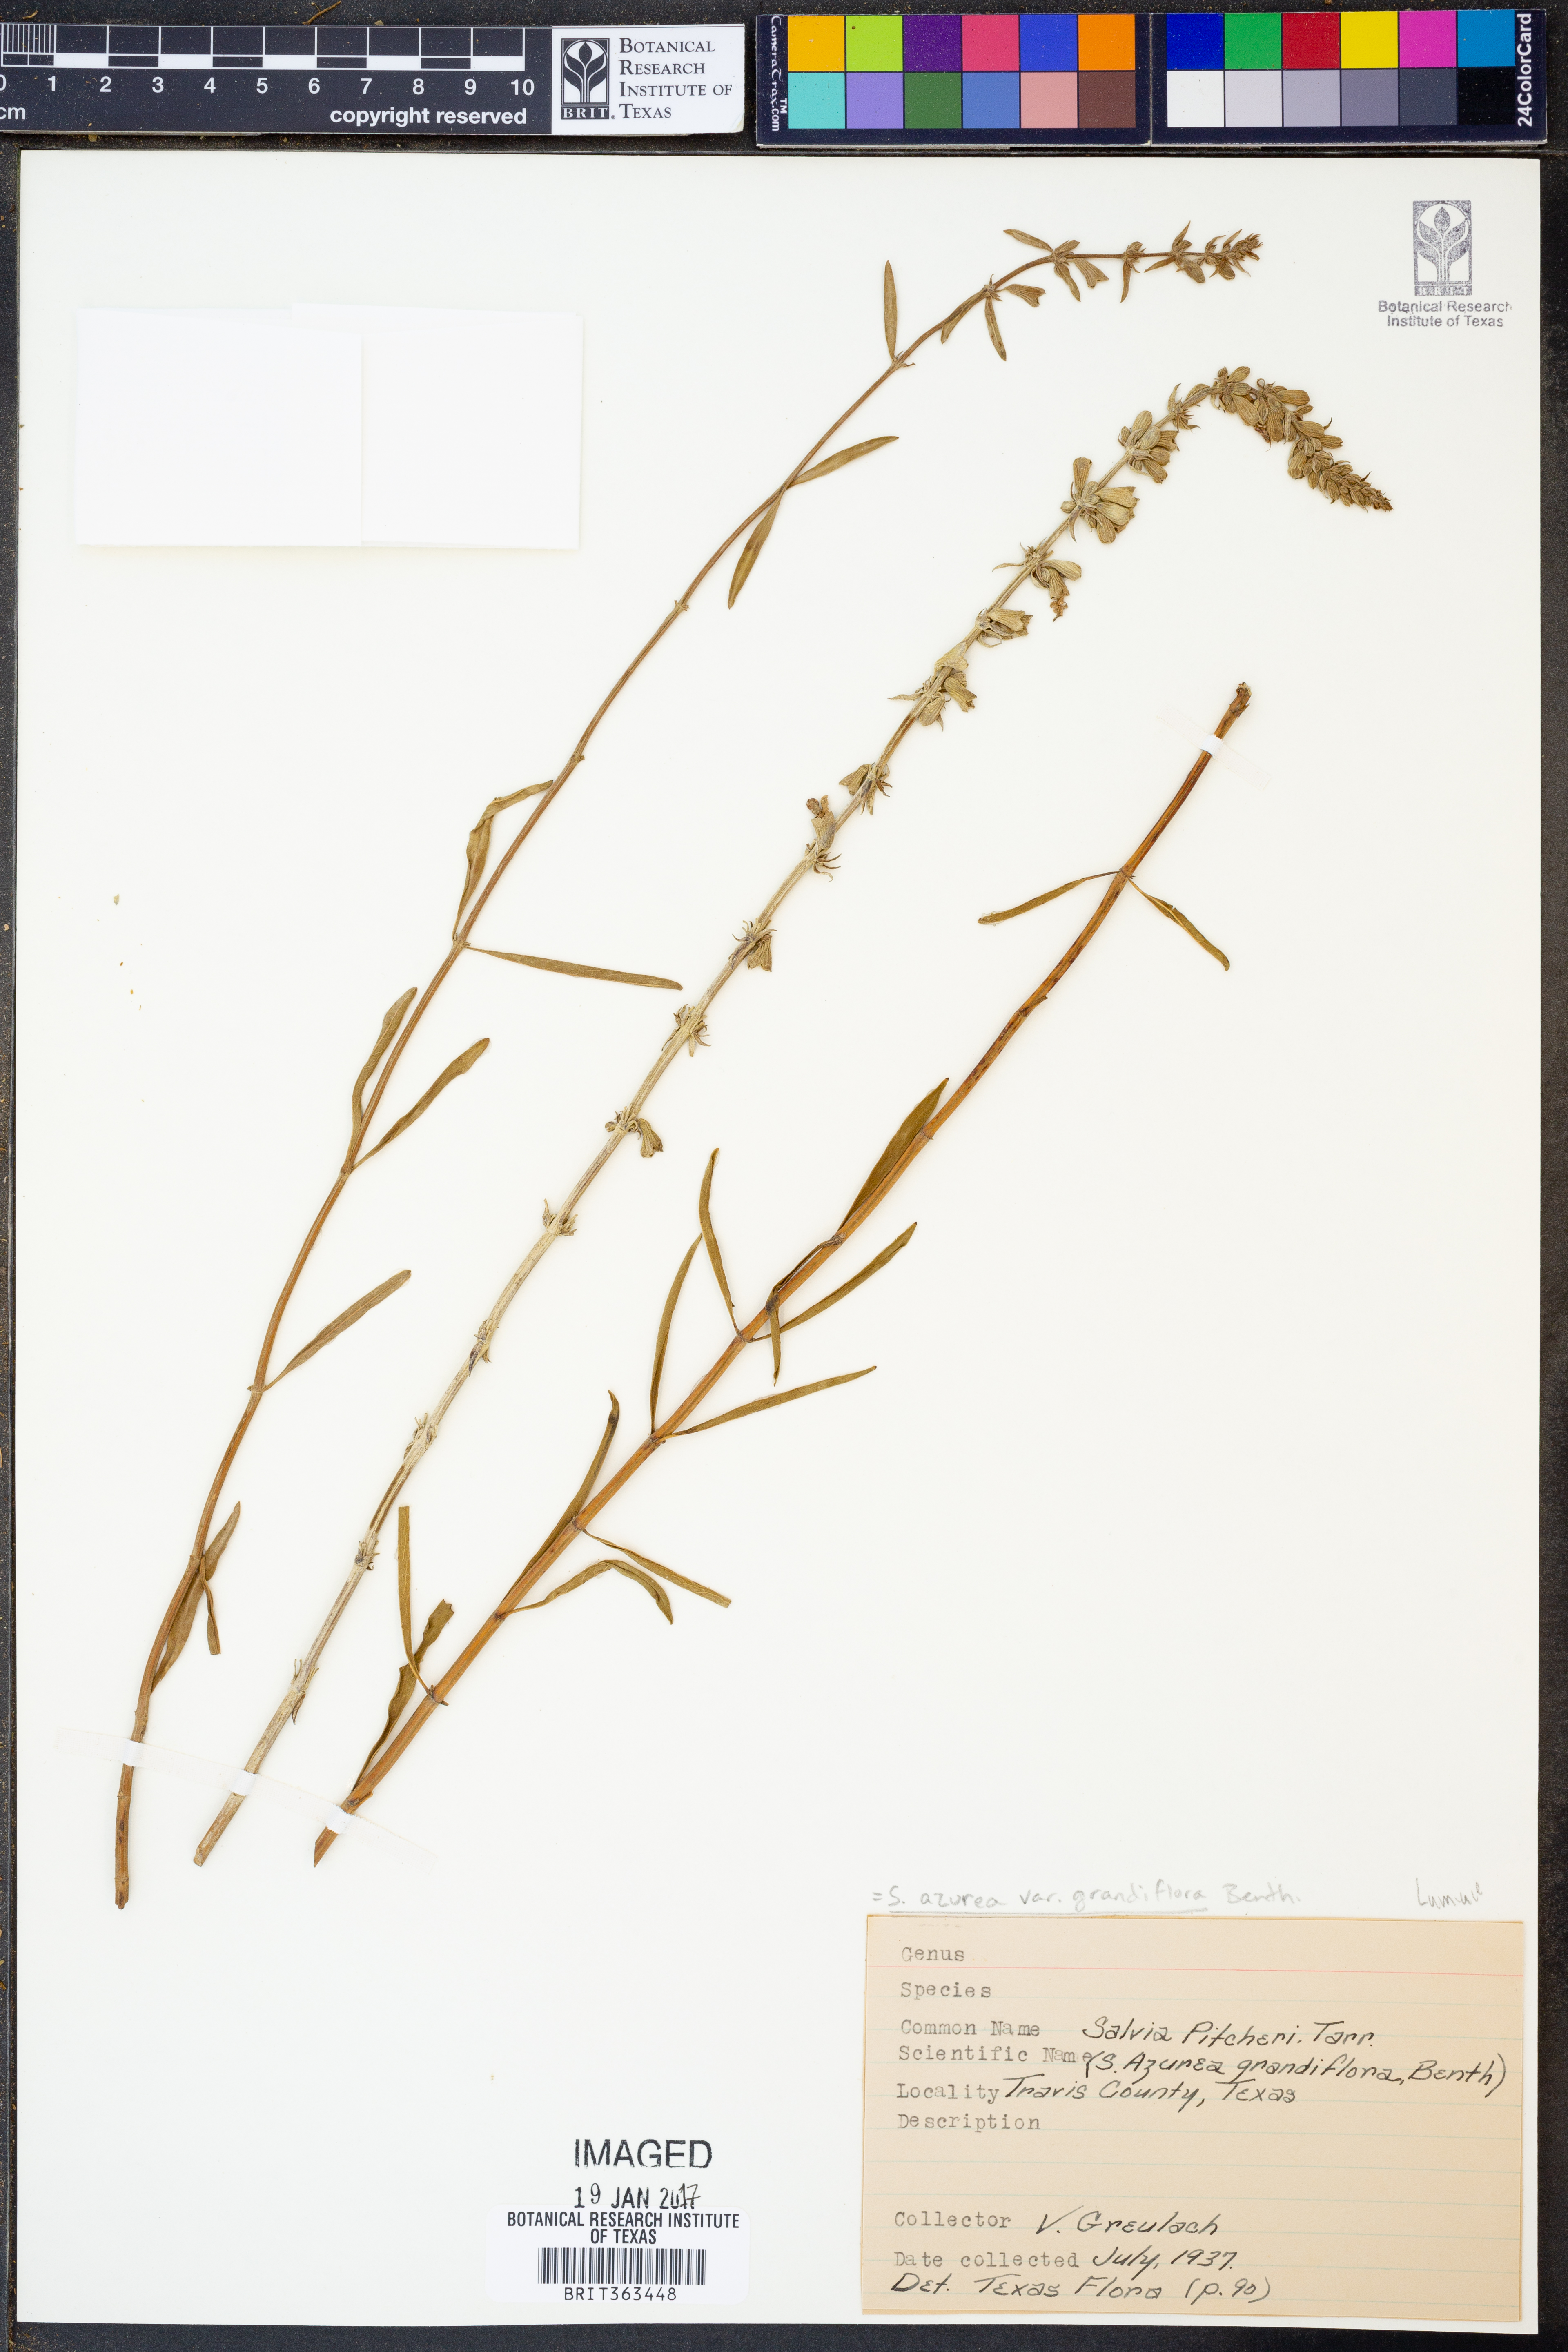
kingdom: Plantae
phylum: Tracheophyta
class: Magnoliopsida
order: Lamiales
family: Lamiaceae
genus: Salvia
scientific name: Salvia azurea
